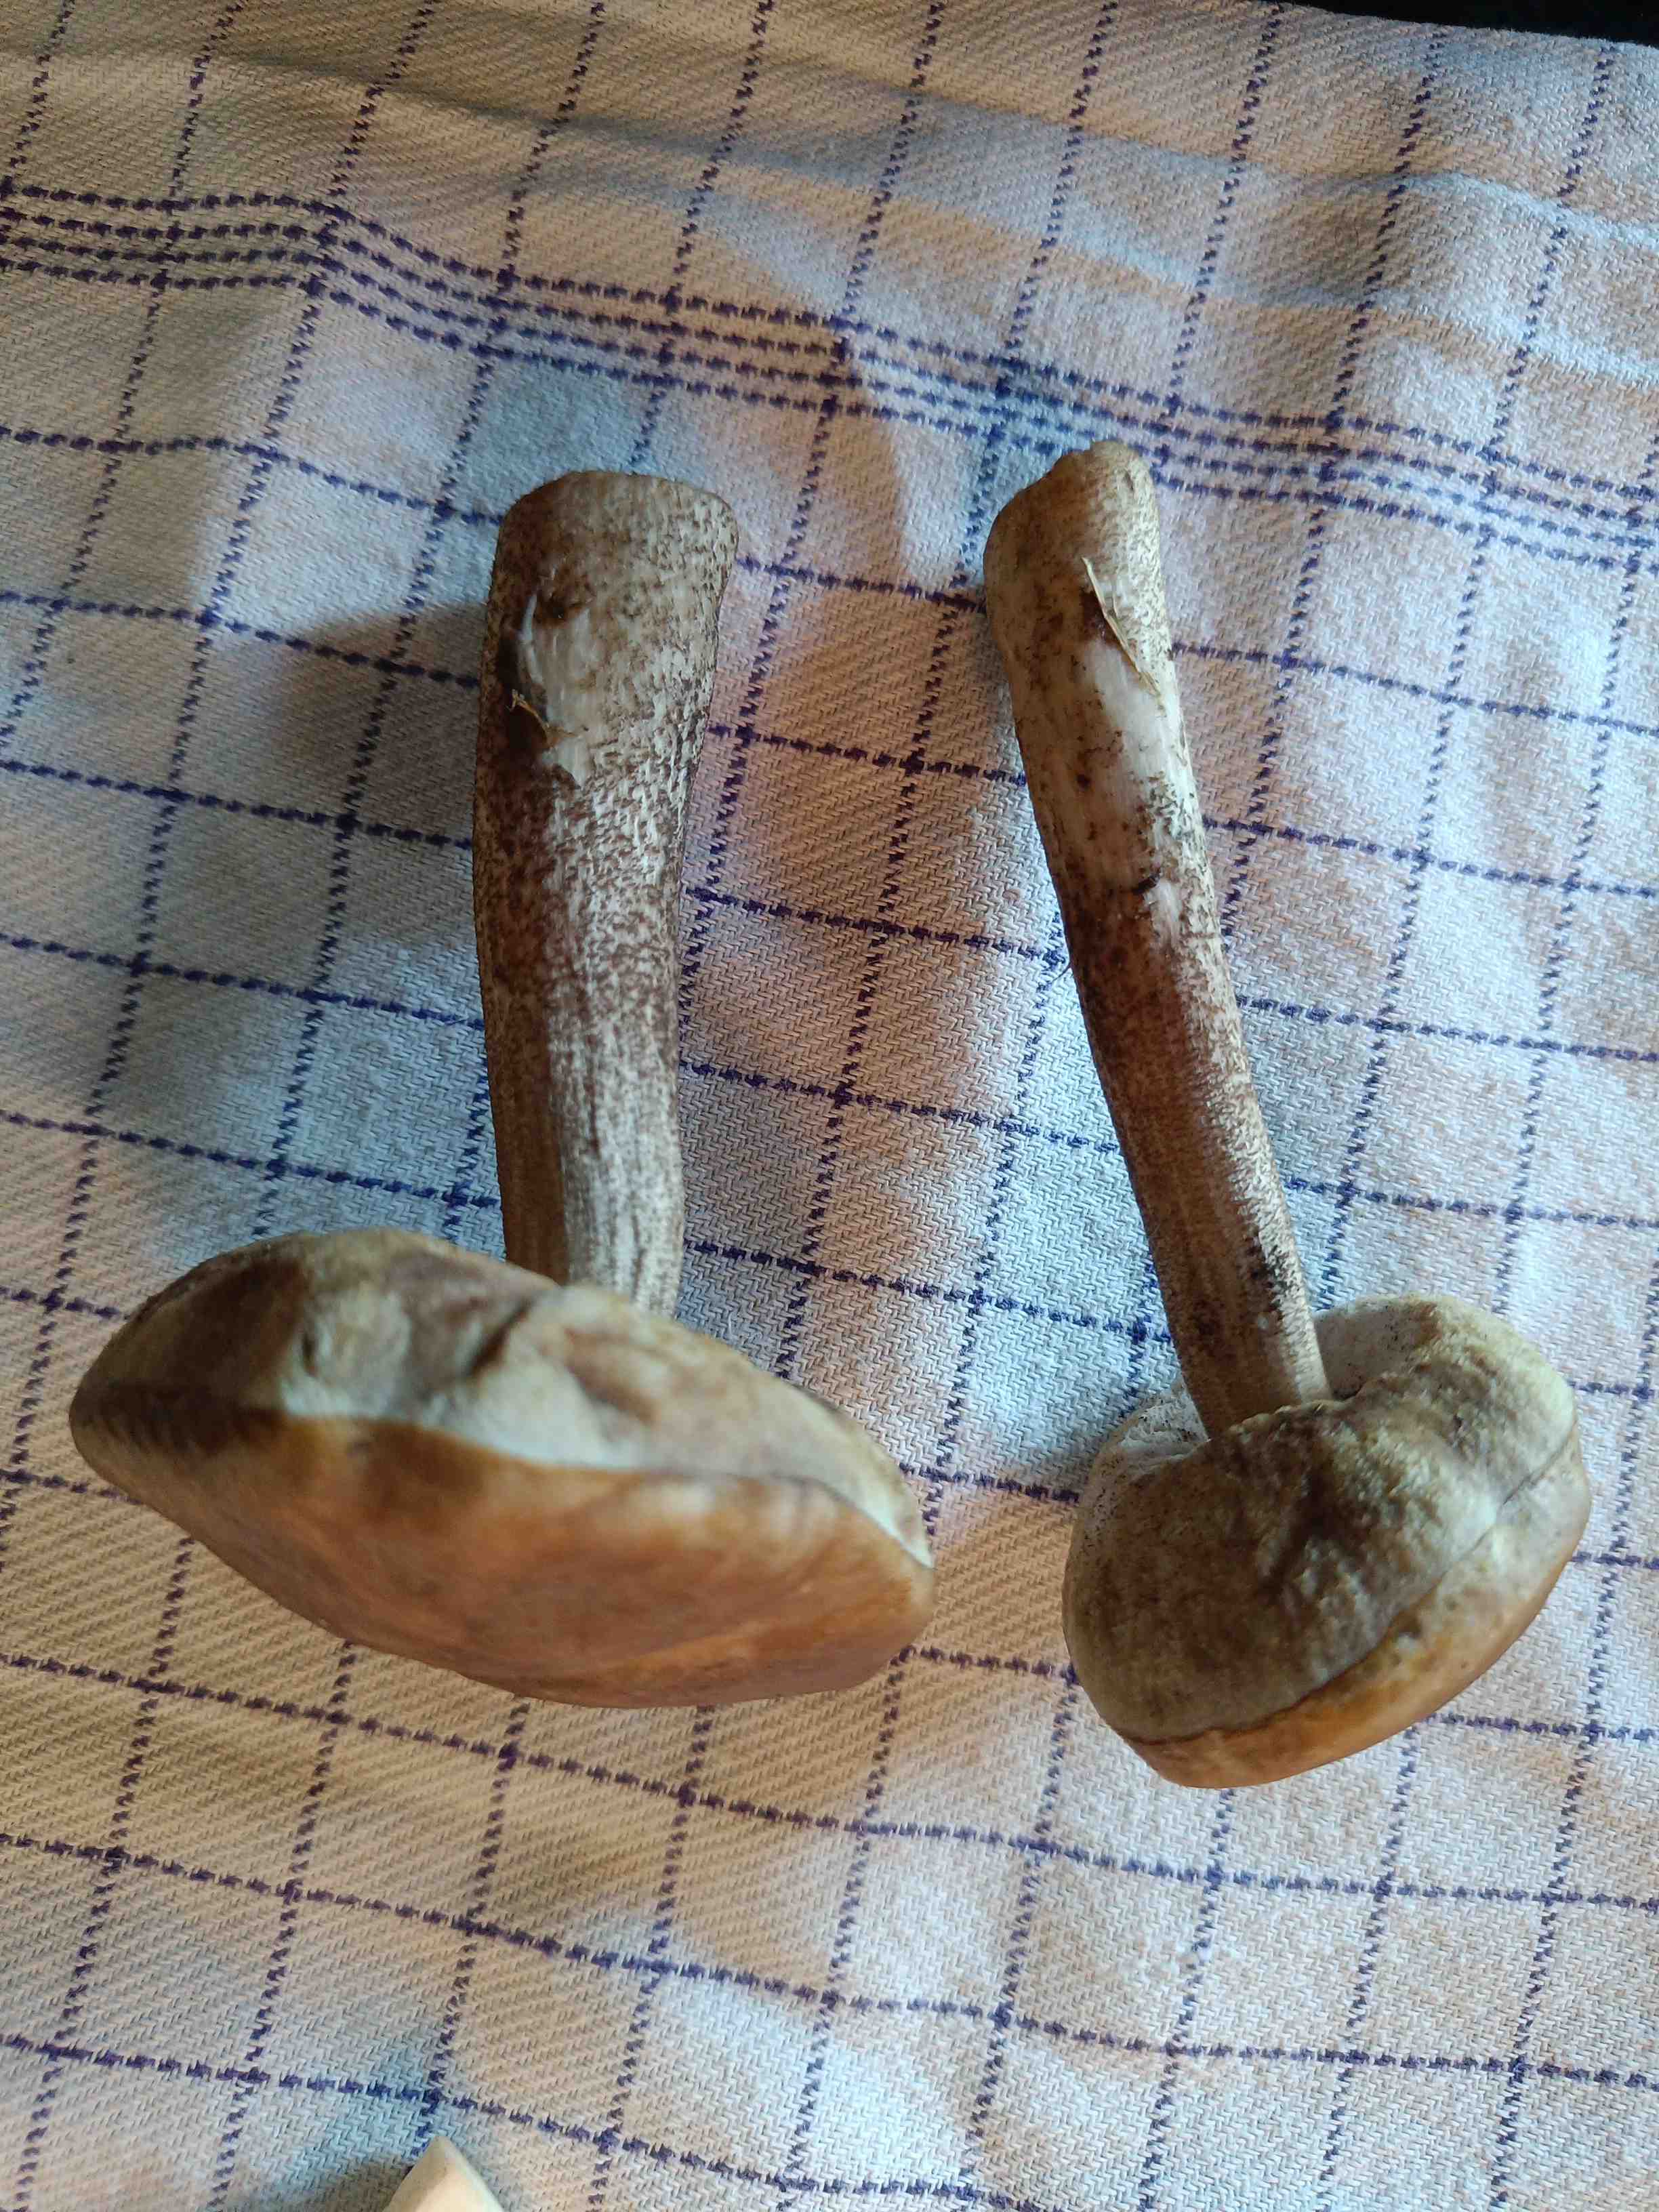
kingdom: Fungi
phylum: Basidiomycota
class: Agaricomycetes
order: Boletales
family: Boletaceae
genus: Leccinum
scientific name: Leccinum scabrum
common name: brun skælrørhat
